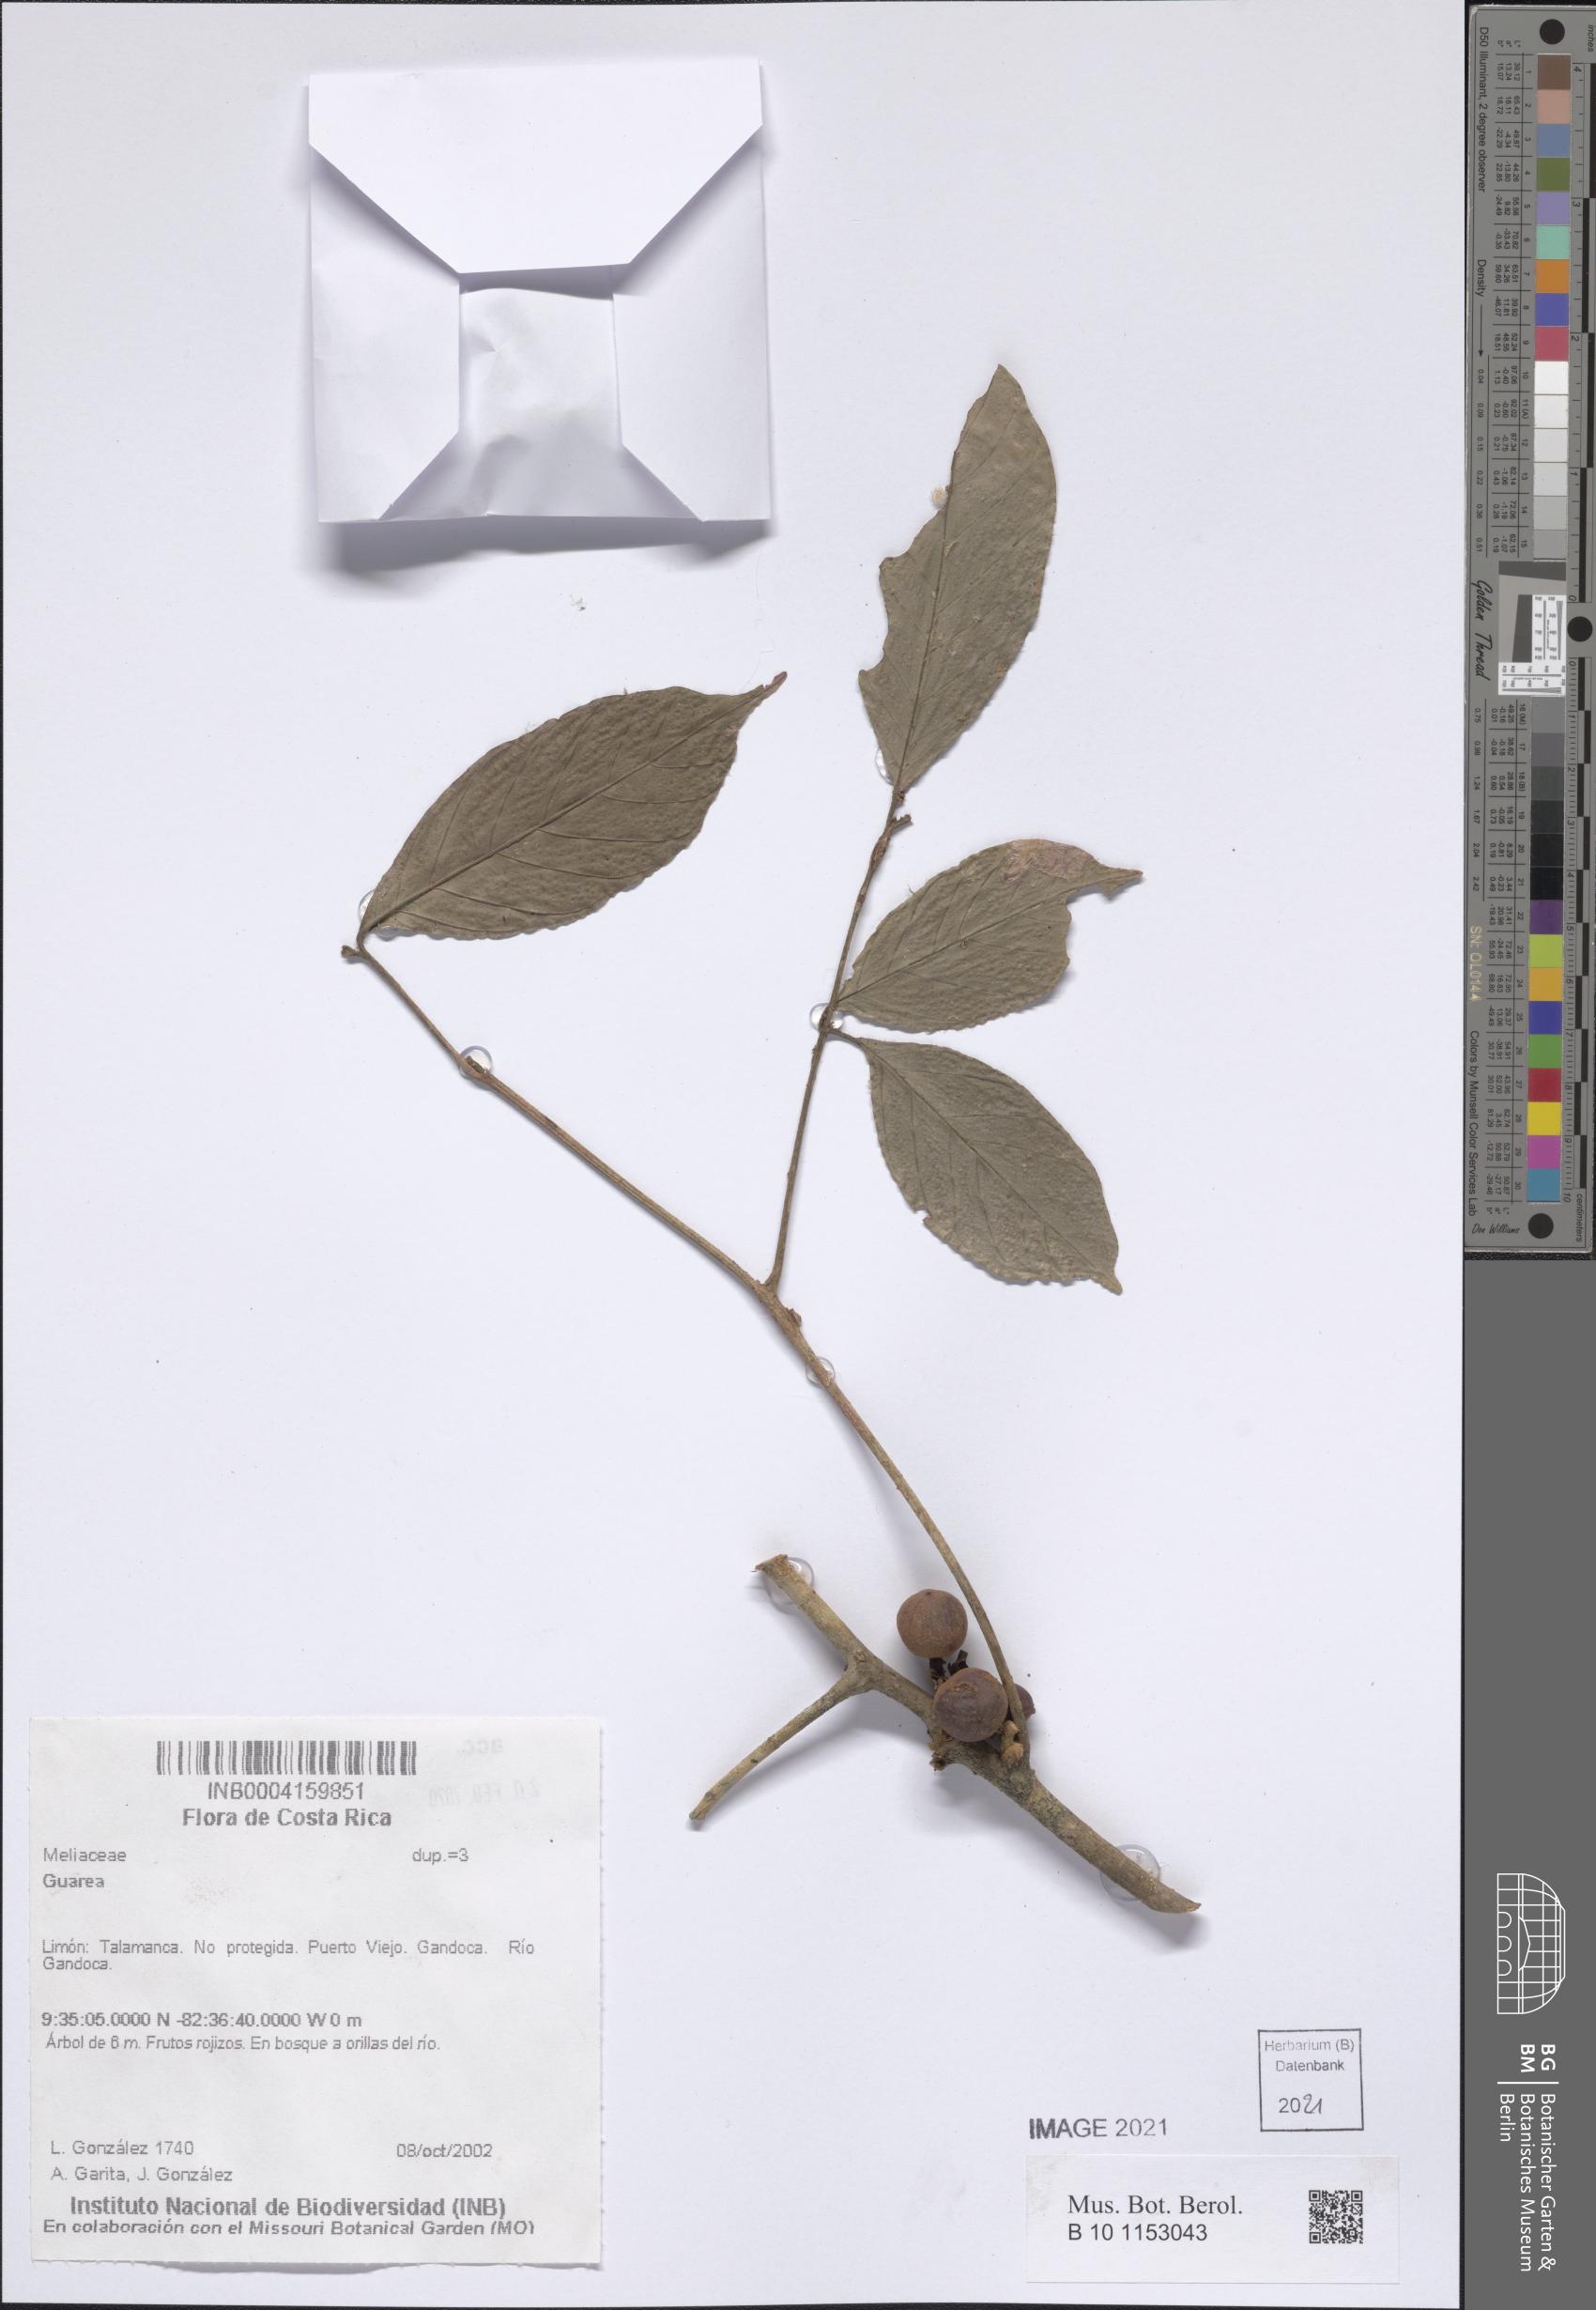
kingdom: Plantae
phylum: Tracheophyta
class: Magnoliopsida
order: Sapindales
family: Meliaceae
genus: Guarea
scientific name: Guarea
